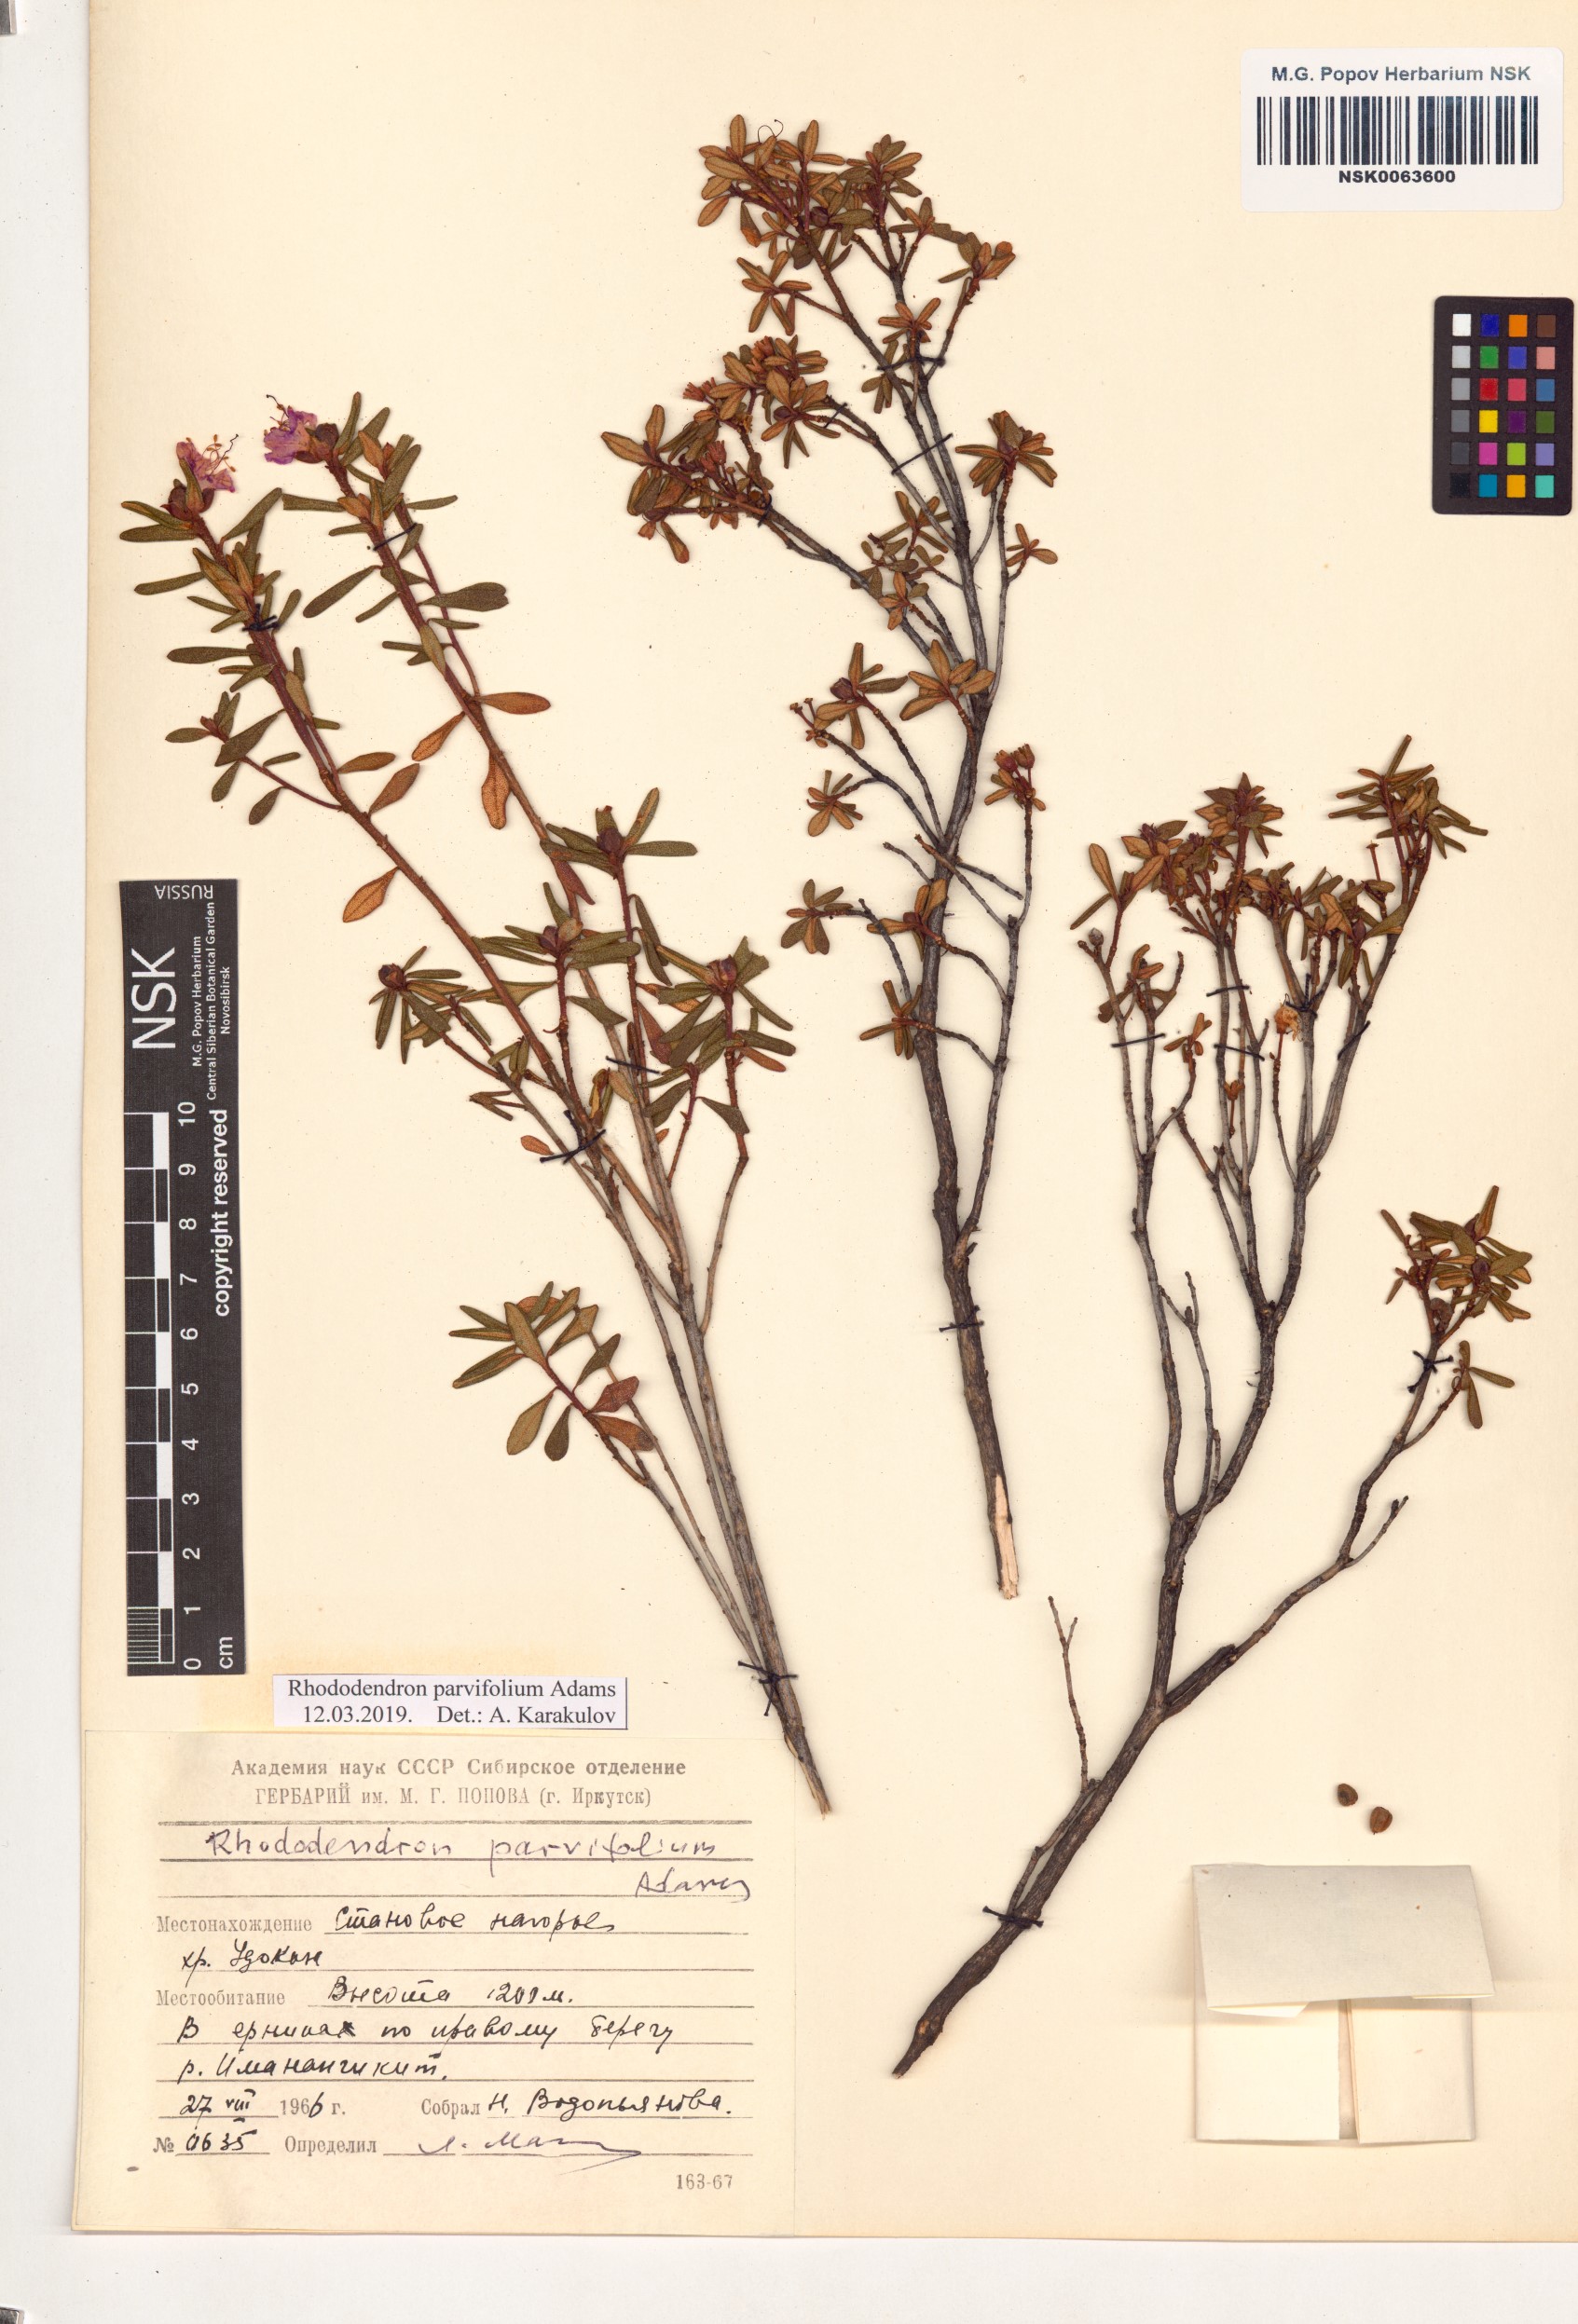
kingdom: Plantae
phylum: Tracheophyta
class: Magnoliopsida
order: Ericales
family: Ericaceae
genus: Rhododendron
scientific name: Rhododendron parvifolium
